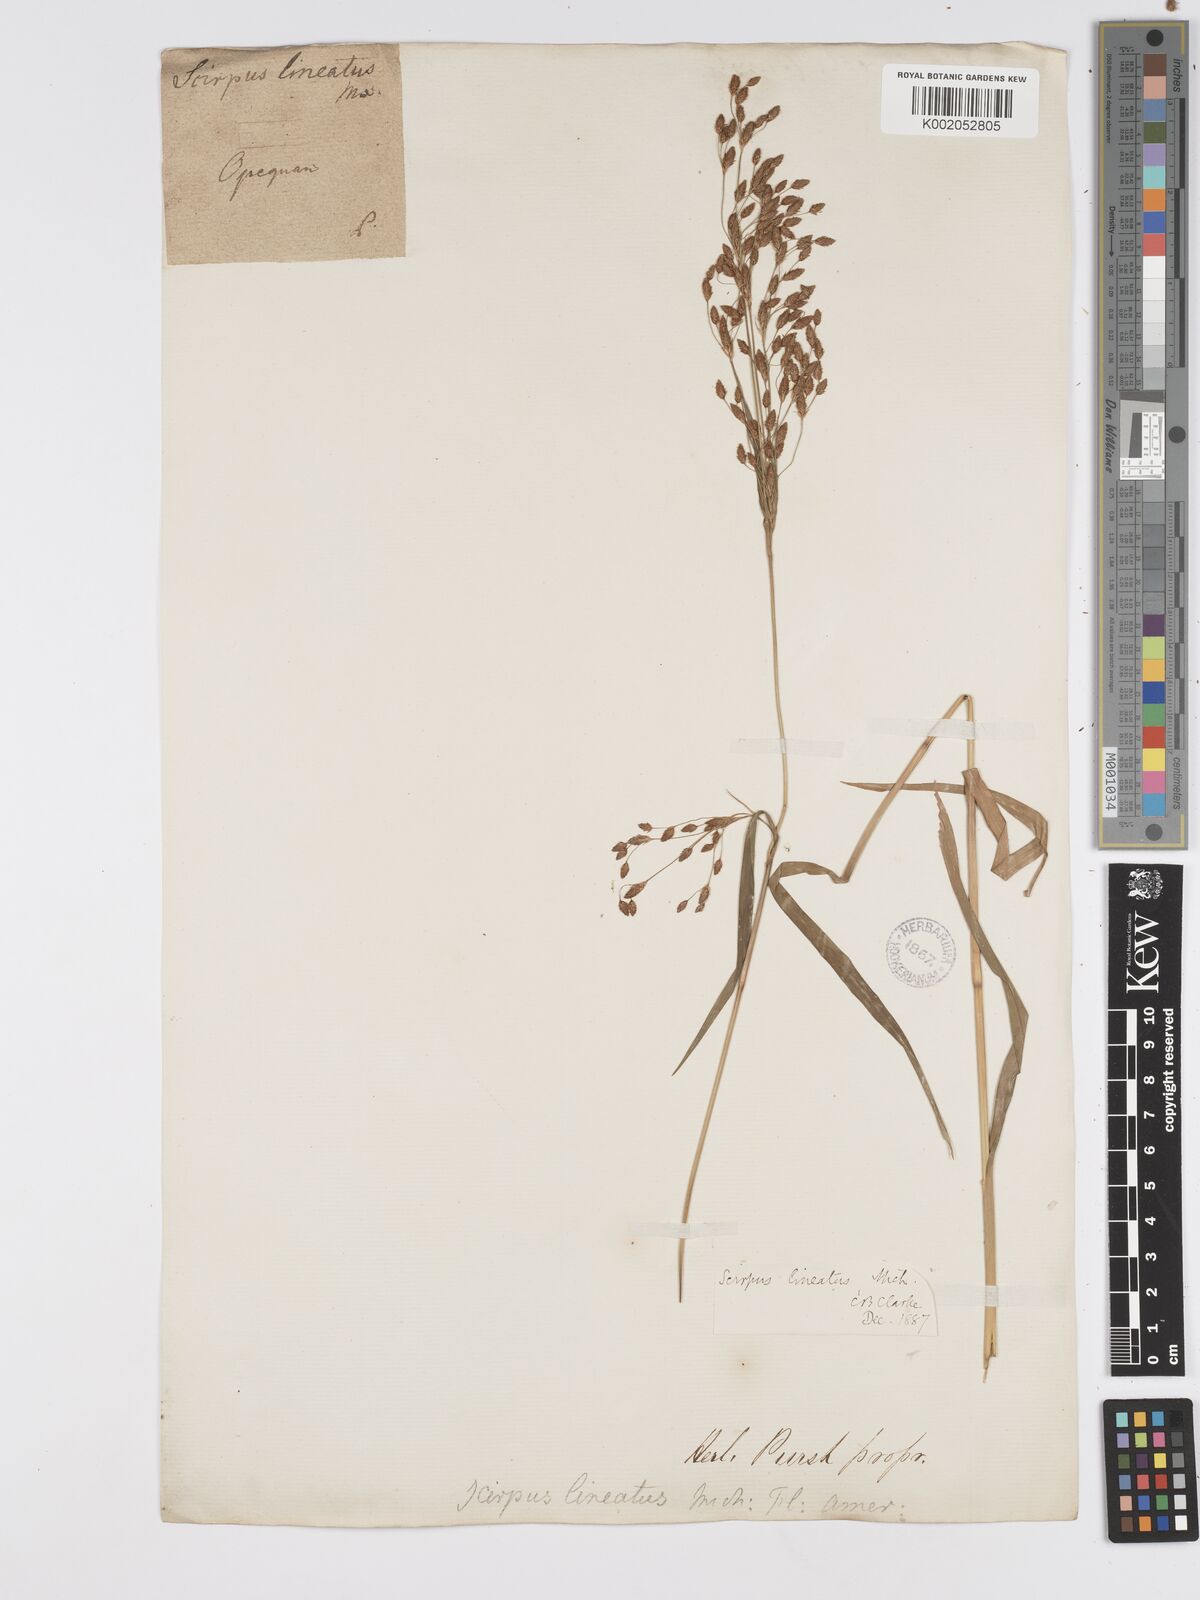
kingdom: Plantae
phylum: Tracheophyta
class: Liliopsida
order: Poales
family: Cyperaceae
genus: Scirpus
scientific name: Scirpus lineatus
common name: Drooping bulrush
